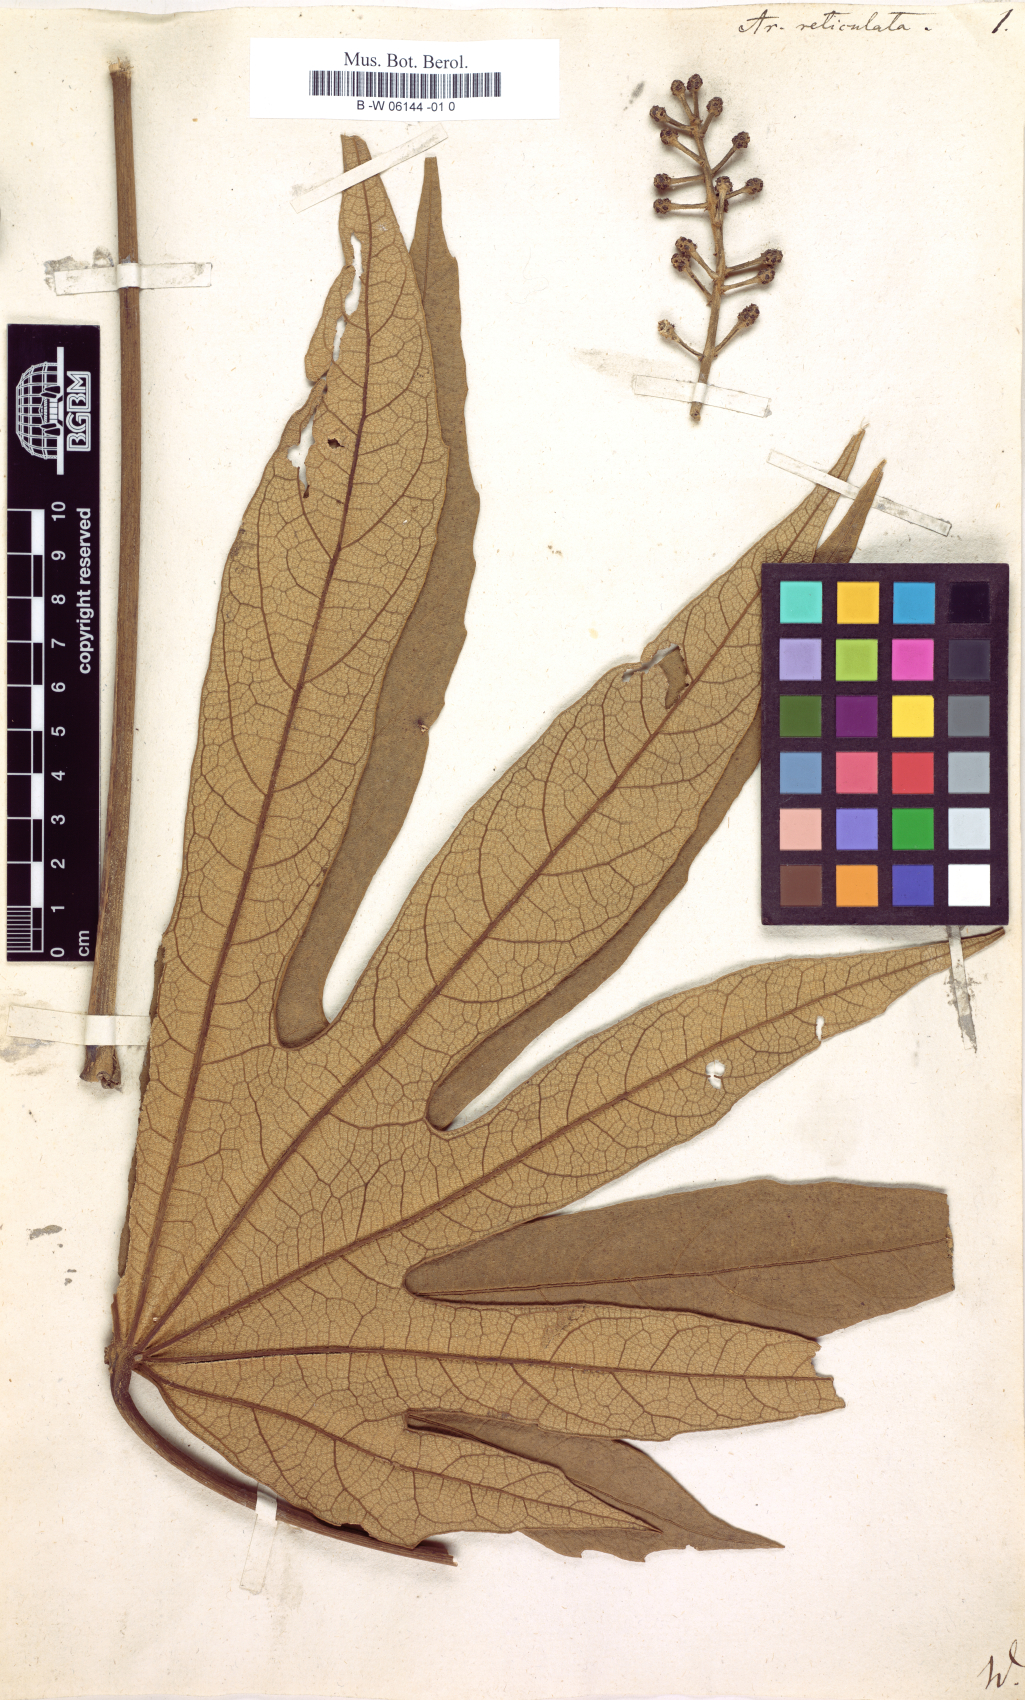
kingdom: Plantae
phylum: Tracheophyta
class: Magnoliopsida
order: Apiales
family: Araliaceae
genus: Oreopanax
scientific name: Oreopanax reticulatus
